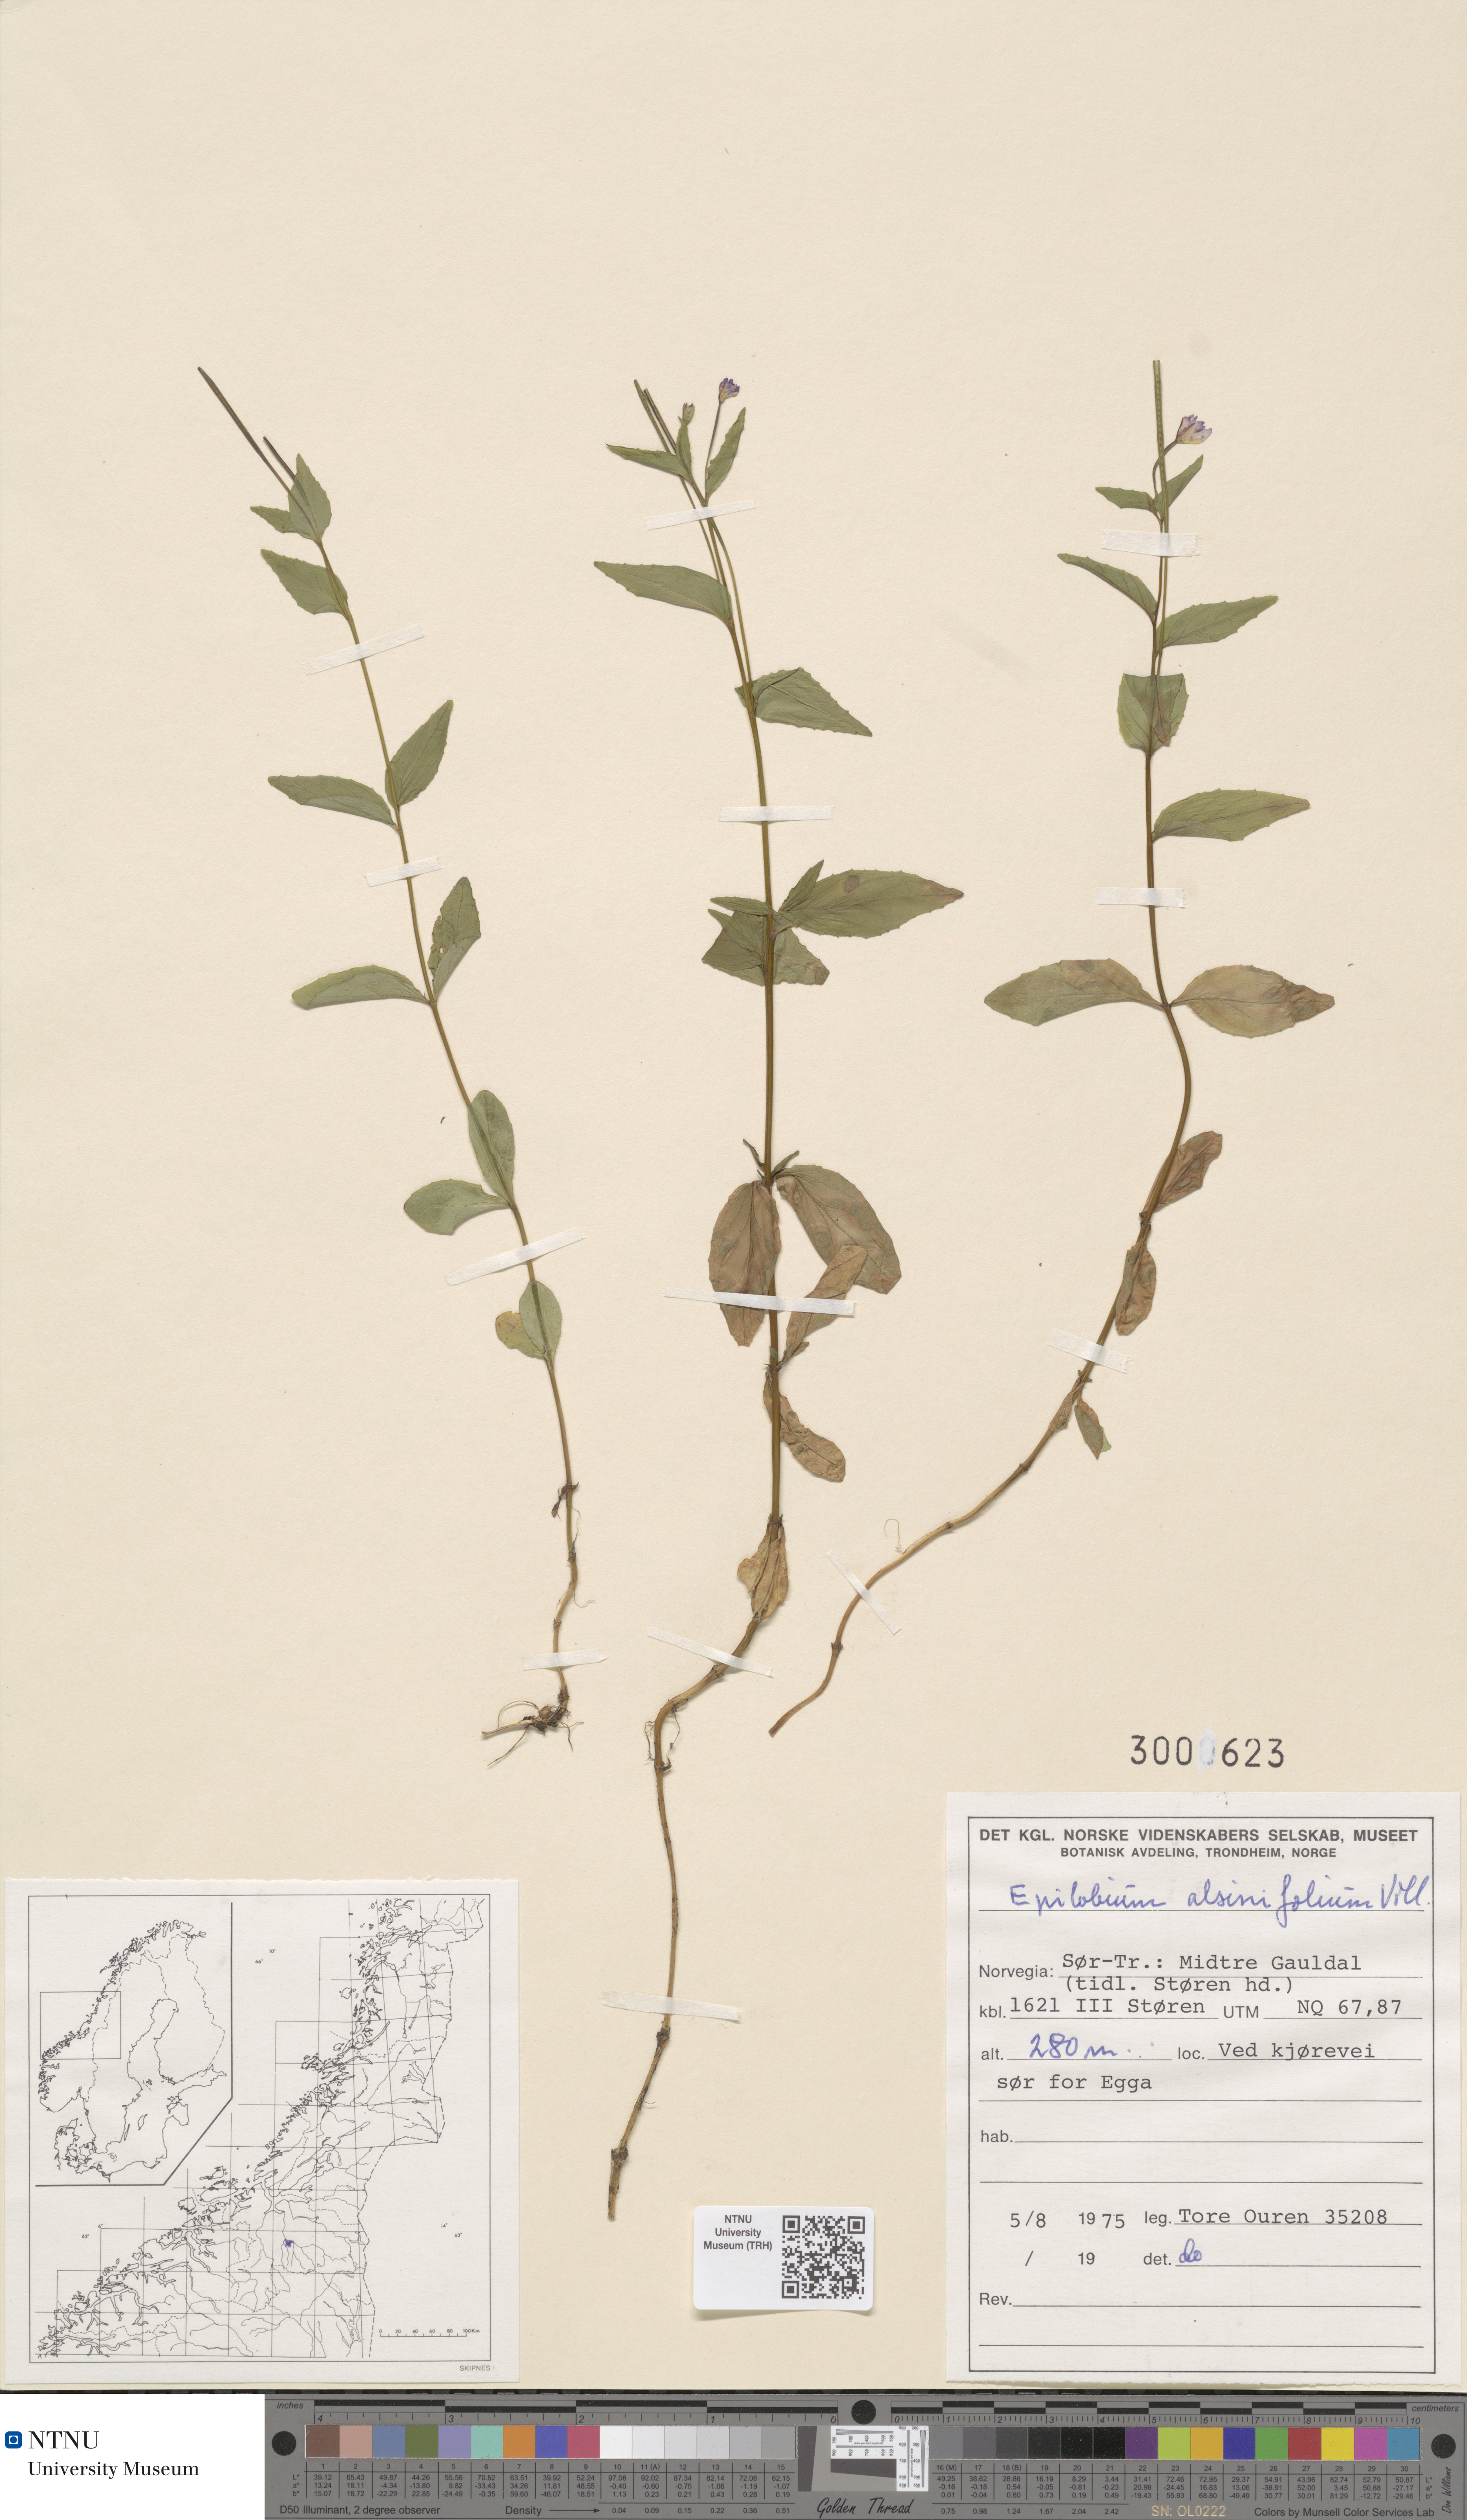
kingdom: Plantae
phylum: Tracheophyta
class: Magnoliopsida
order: Myrtales
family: Onagraceae
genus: Epilobium
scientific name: Epilobium alsinifolium
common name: Chickweed willowherb
